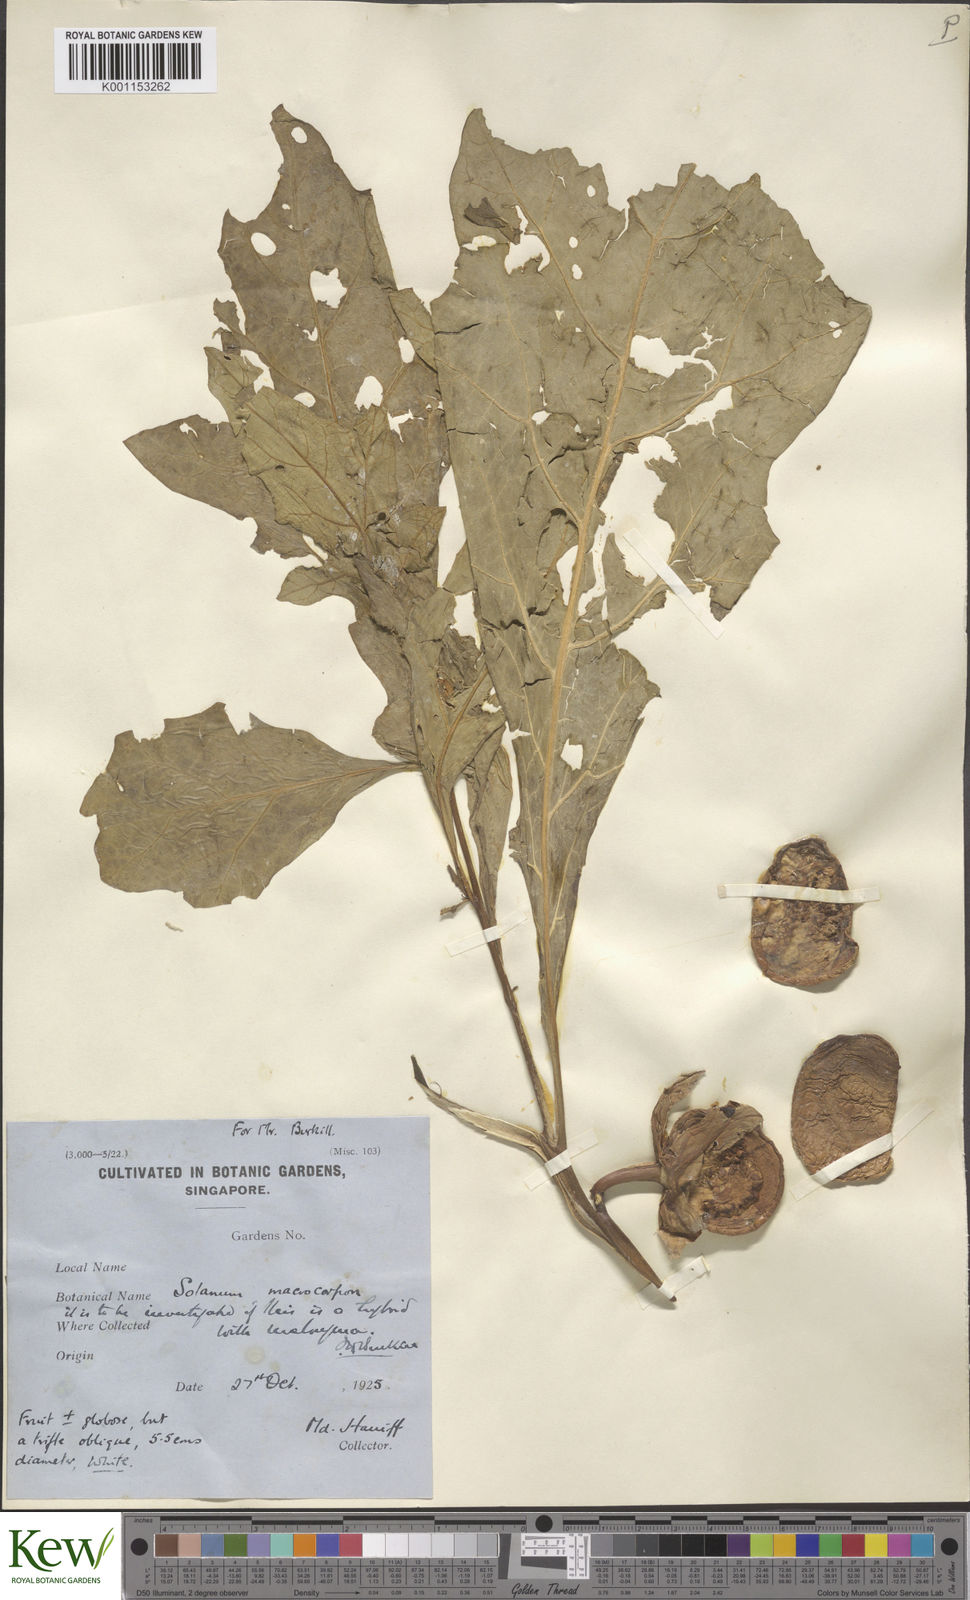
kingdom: Plantae
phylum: Tracheophyta
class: Magnoliopsida
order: Solanales
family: Solanaceae
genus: Solanum
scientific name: Solanum macrocarpon
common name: African eggplant
